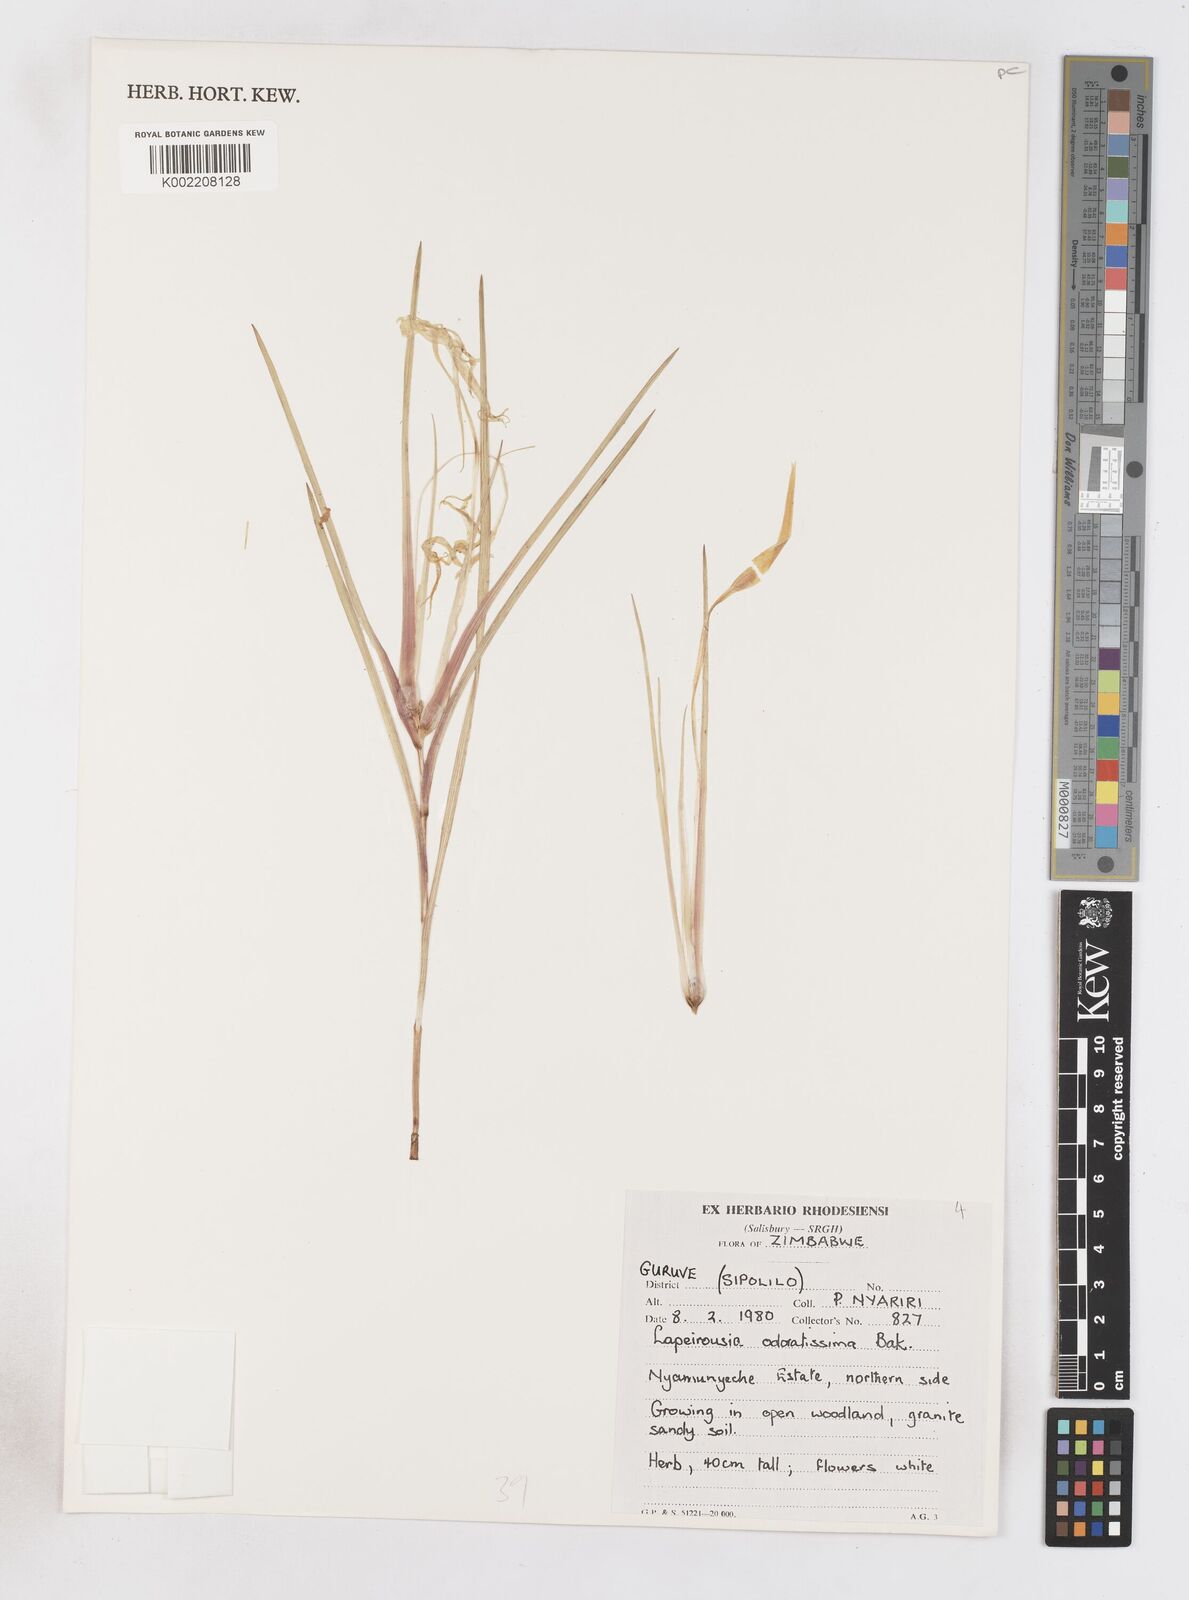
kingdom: Plantae
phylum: Tracheophyta
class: Liliopsida
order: Asparagales
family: Iridaceae
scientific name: Iridaceae
